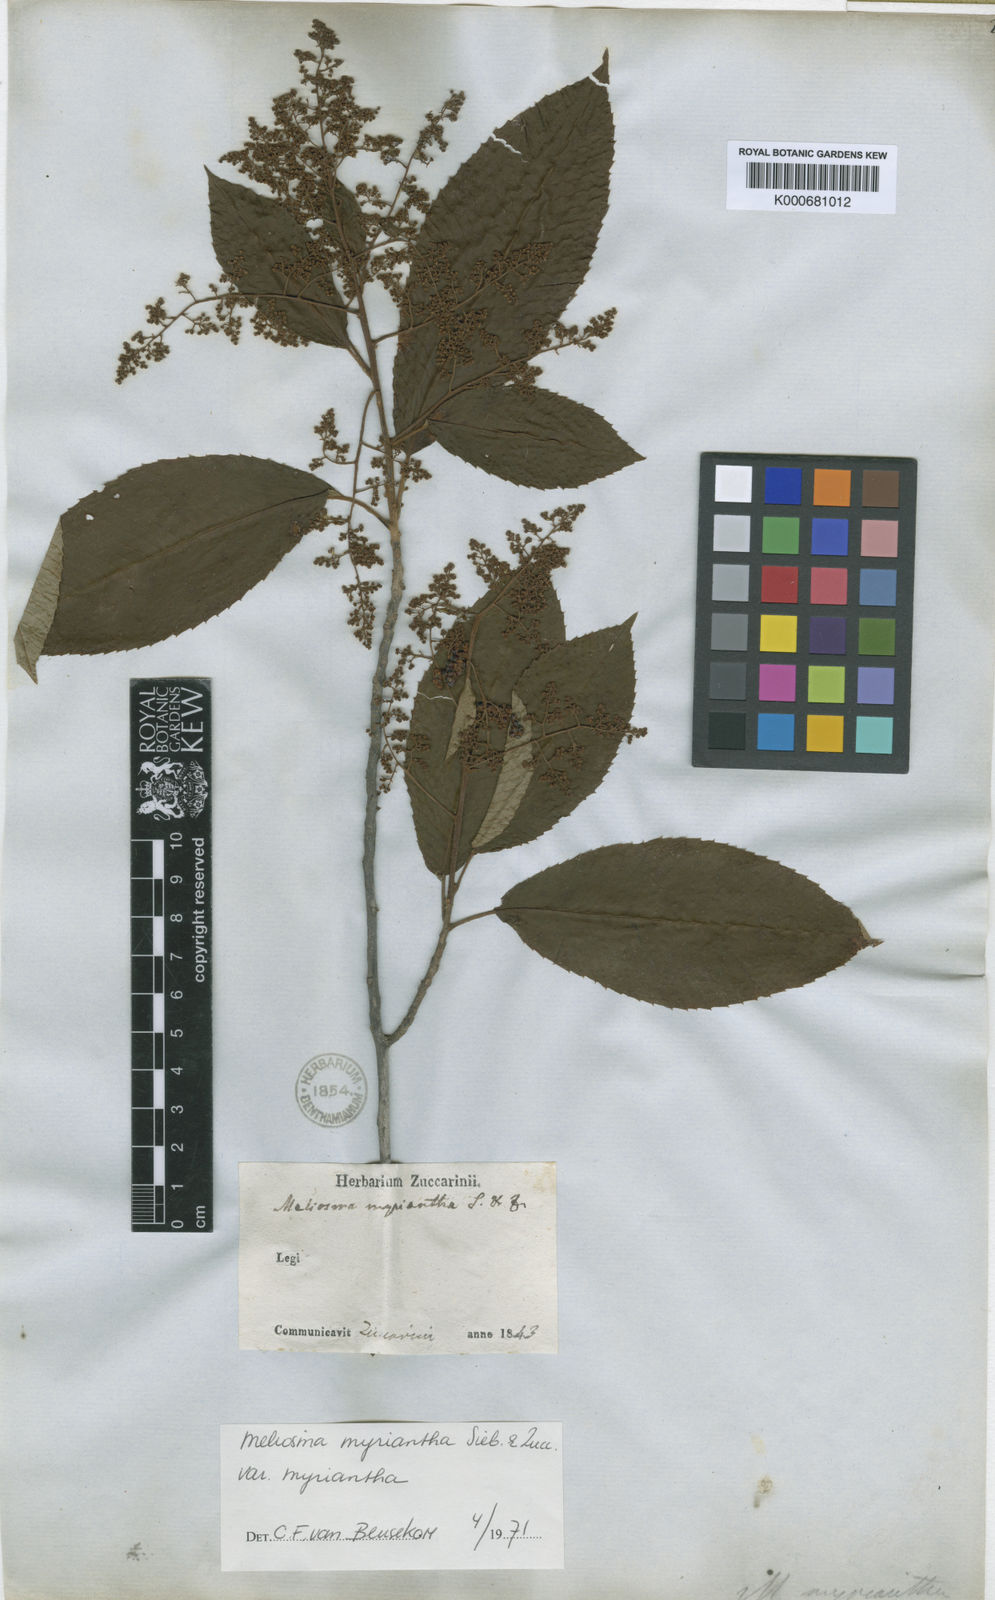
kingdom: Plantae
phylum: Tracheophyta
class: Magnoliopsida
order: Proteales
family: Sabiaceae
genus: Meliosma
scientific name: Meliosma myriantha
